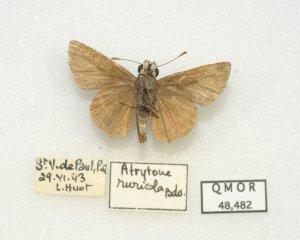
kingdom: Animalia
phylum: Arthropoda
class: Insecta
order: Lepidoptera
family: Hesperiidae
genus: Euphyes
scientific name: Euphyes vestris
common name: Dun Skipper
